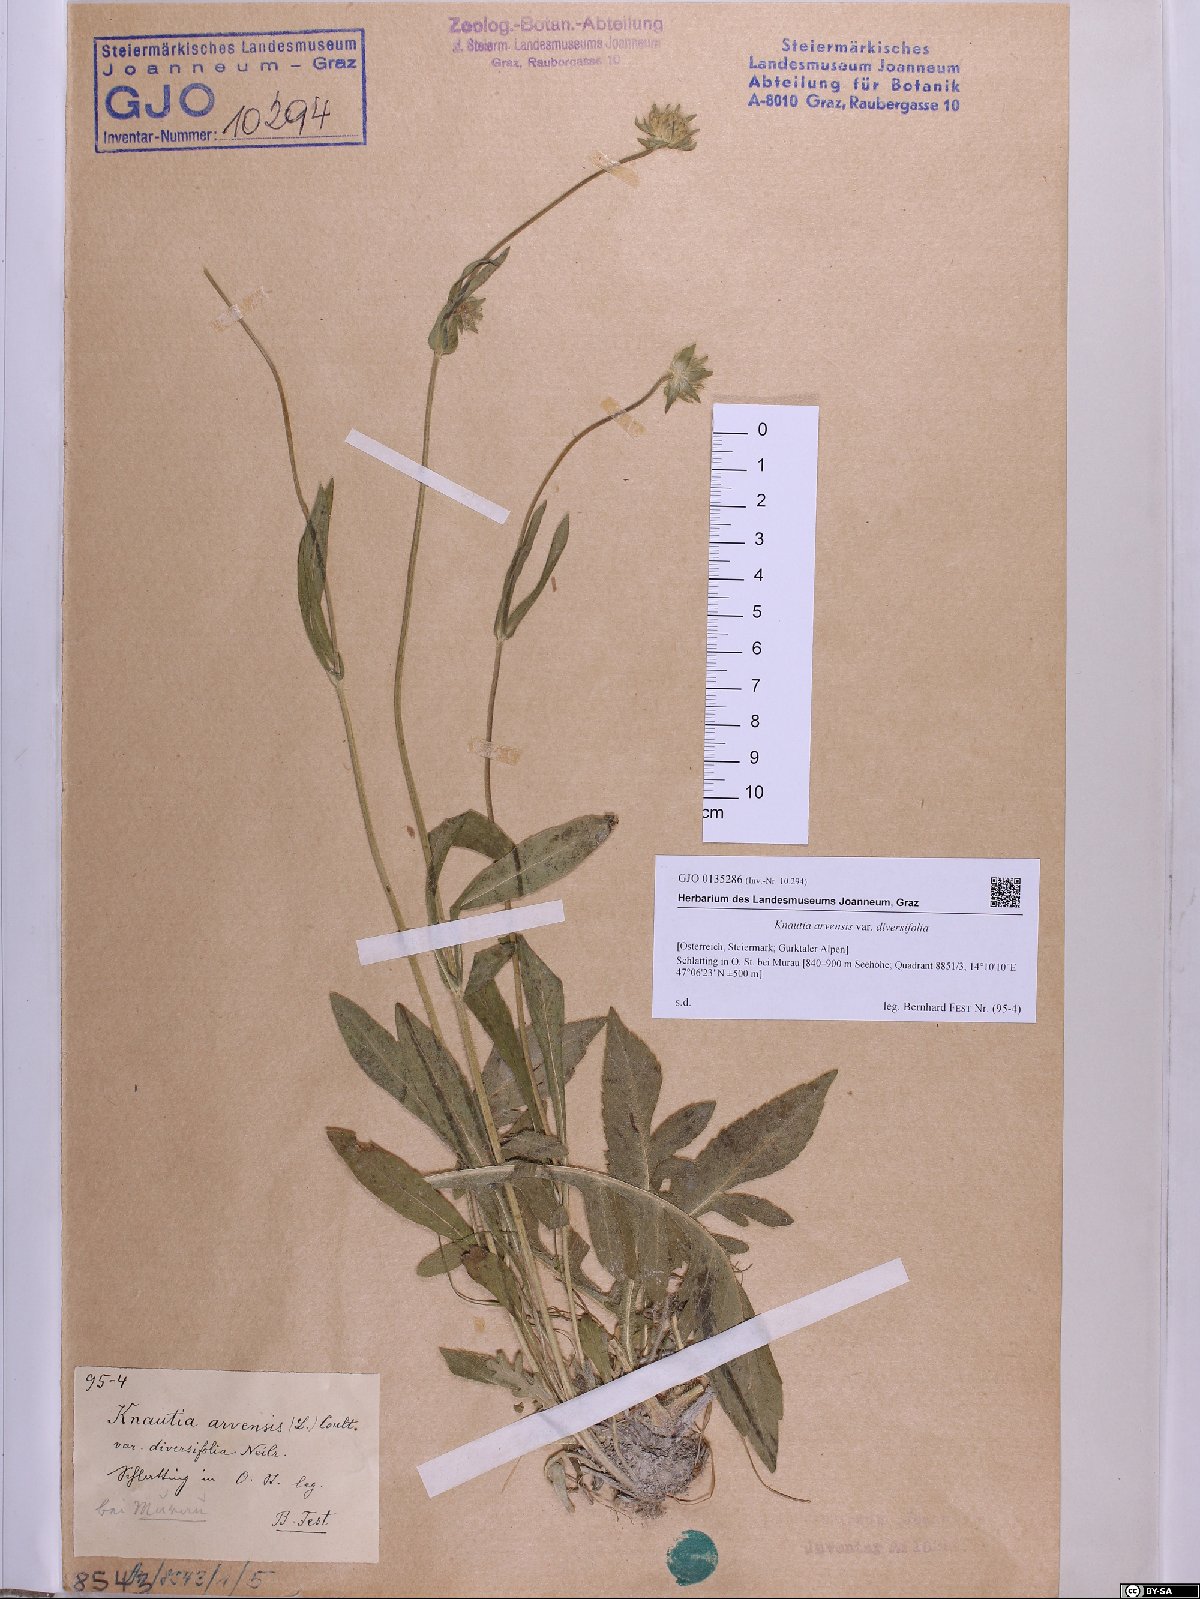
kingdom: Plantae
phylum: Tracheophyta
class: Magnoliopsida
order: Dipsacales
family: Caprifoliaceae
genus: Knautia
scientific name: Knautia arvensis
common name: Field scabiosa
